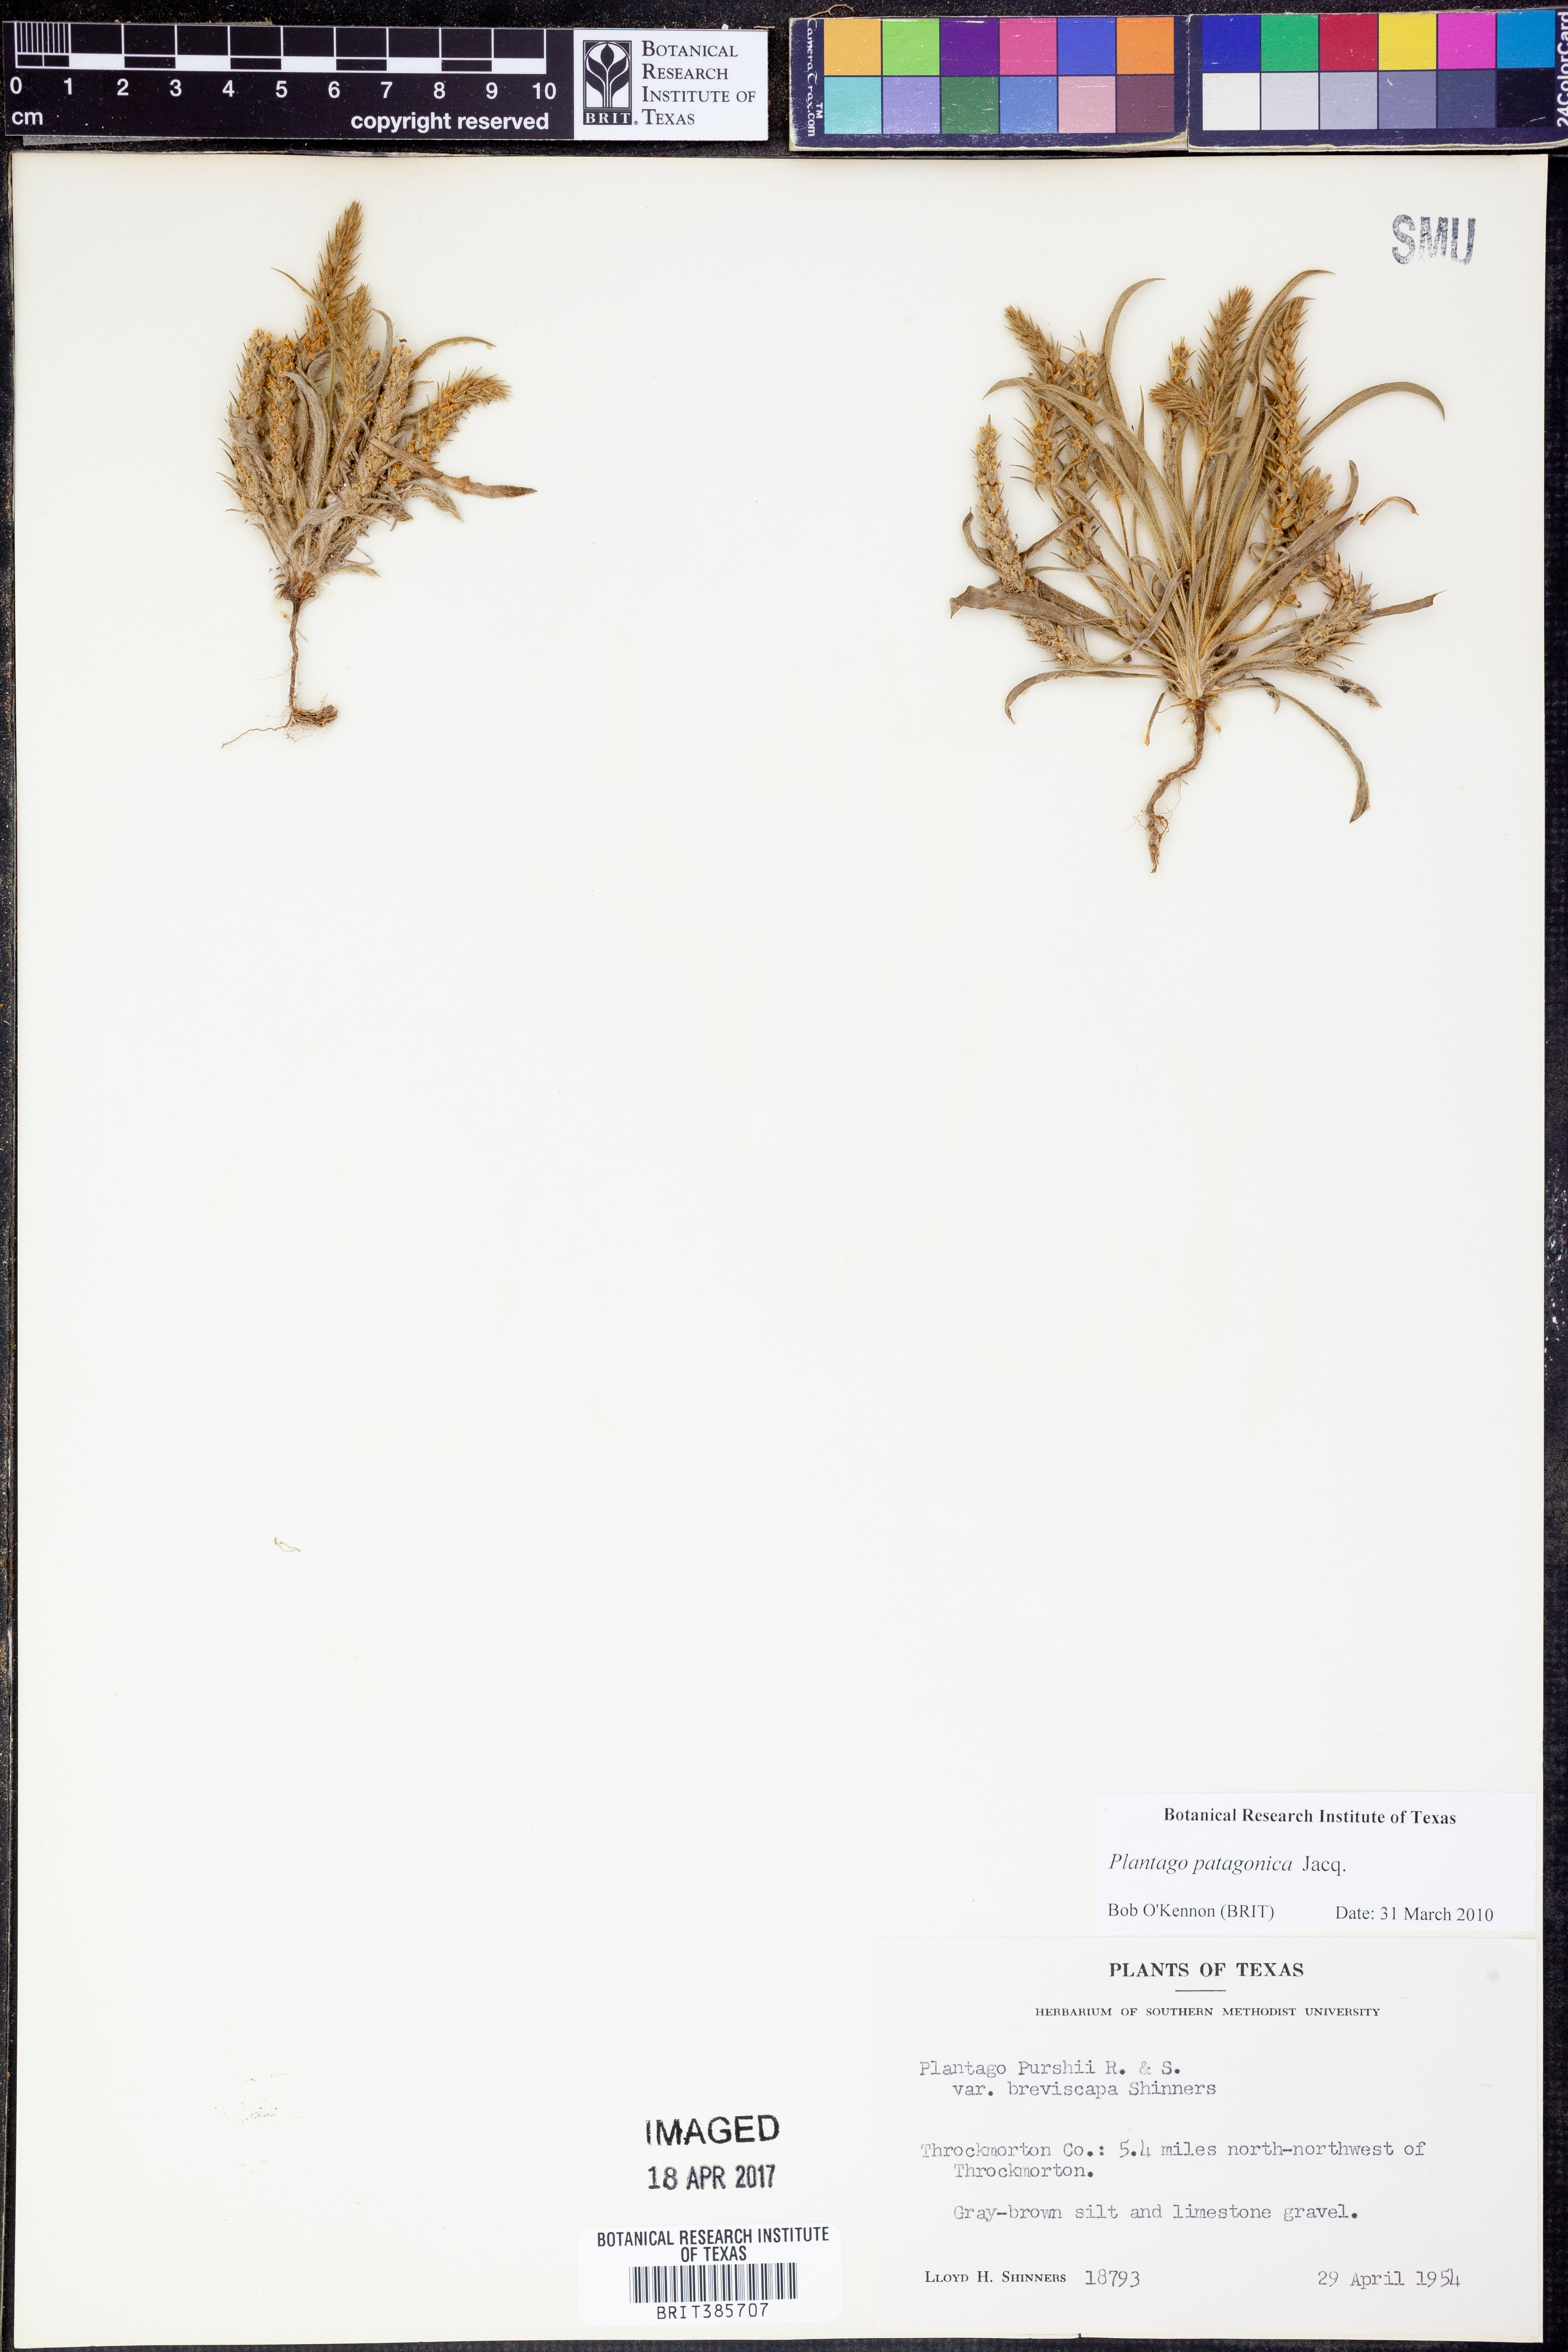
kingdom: Plantae
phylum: Tracheophyta
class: Magnoliopsida
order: Lamiales
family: Plantaginaceae
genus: Plantago
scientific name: Plantago patagonica
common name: Patagonia indian-wheat
